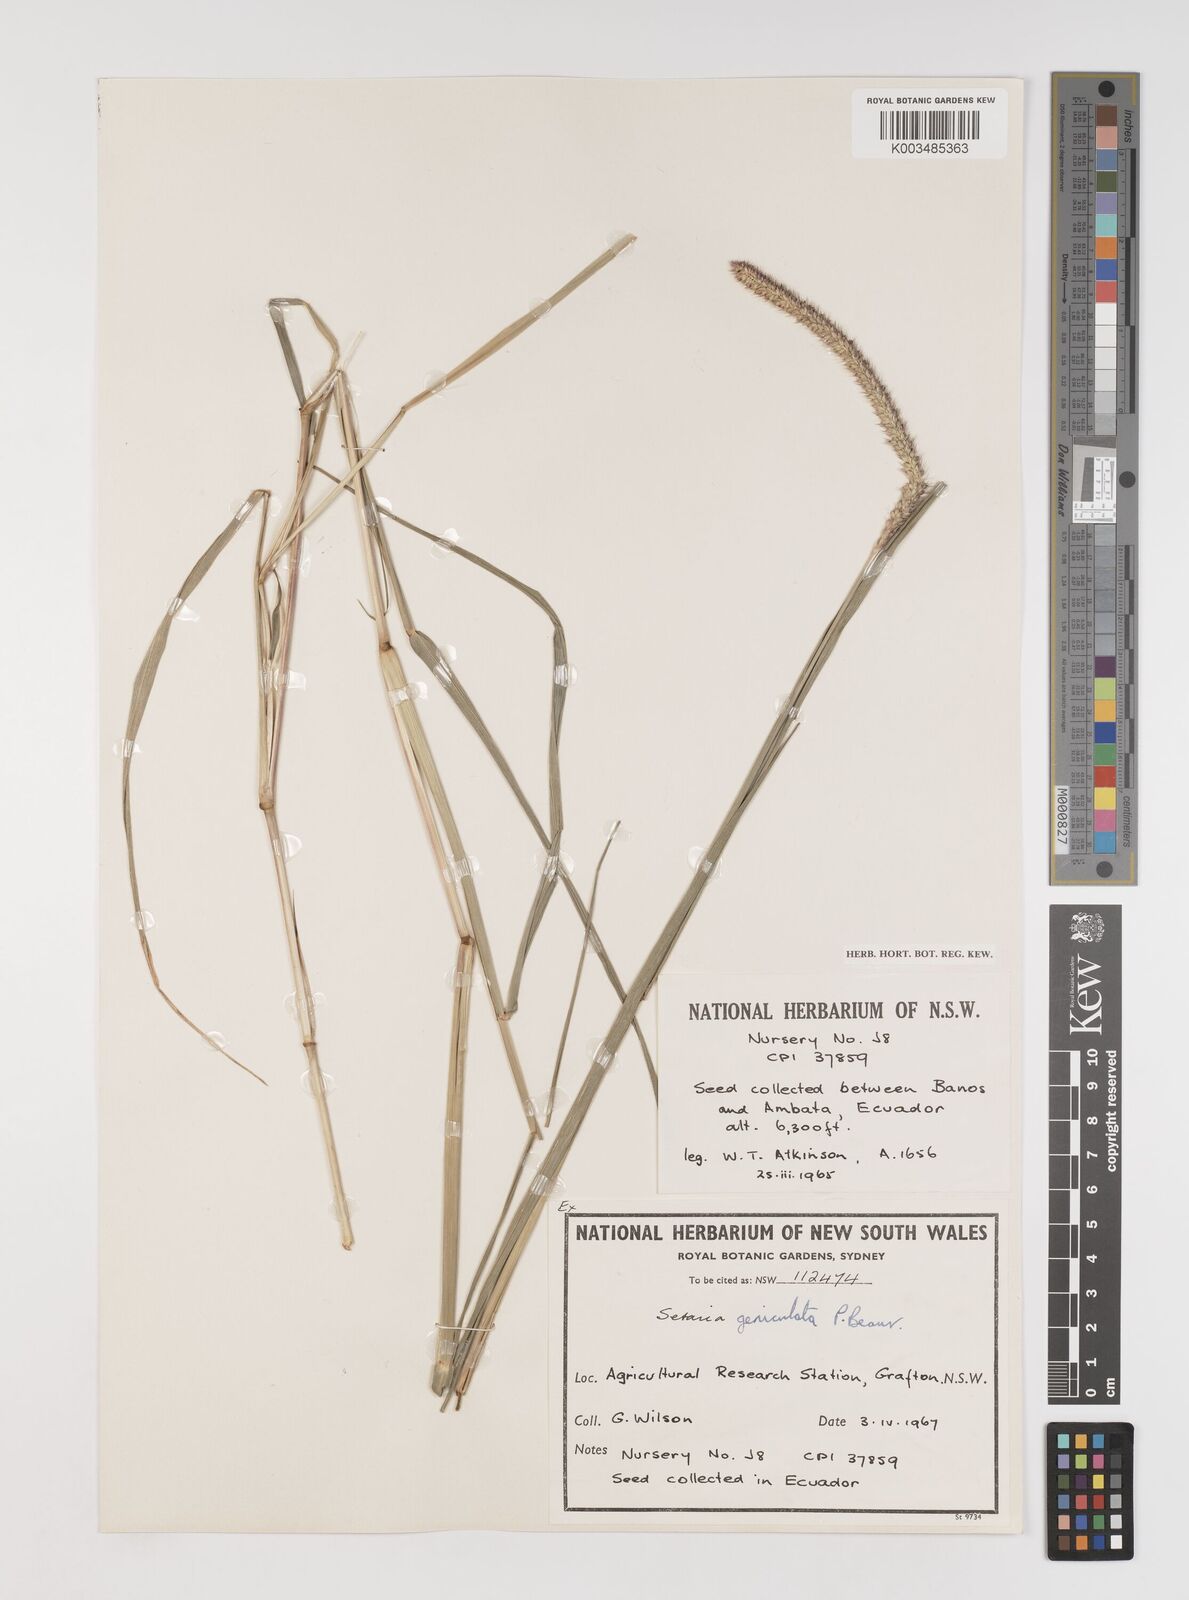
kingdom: Plantae
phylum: Tracheophyta
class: Liliopsida
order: Poales
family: Poaceae
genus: Setaria
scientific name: Setaria parviflora
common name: Knotroot bristle-grass
